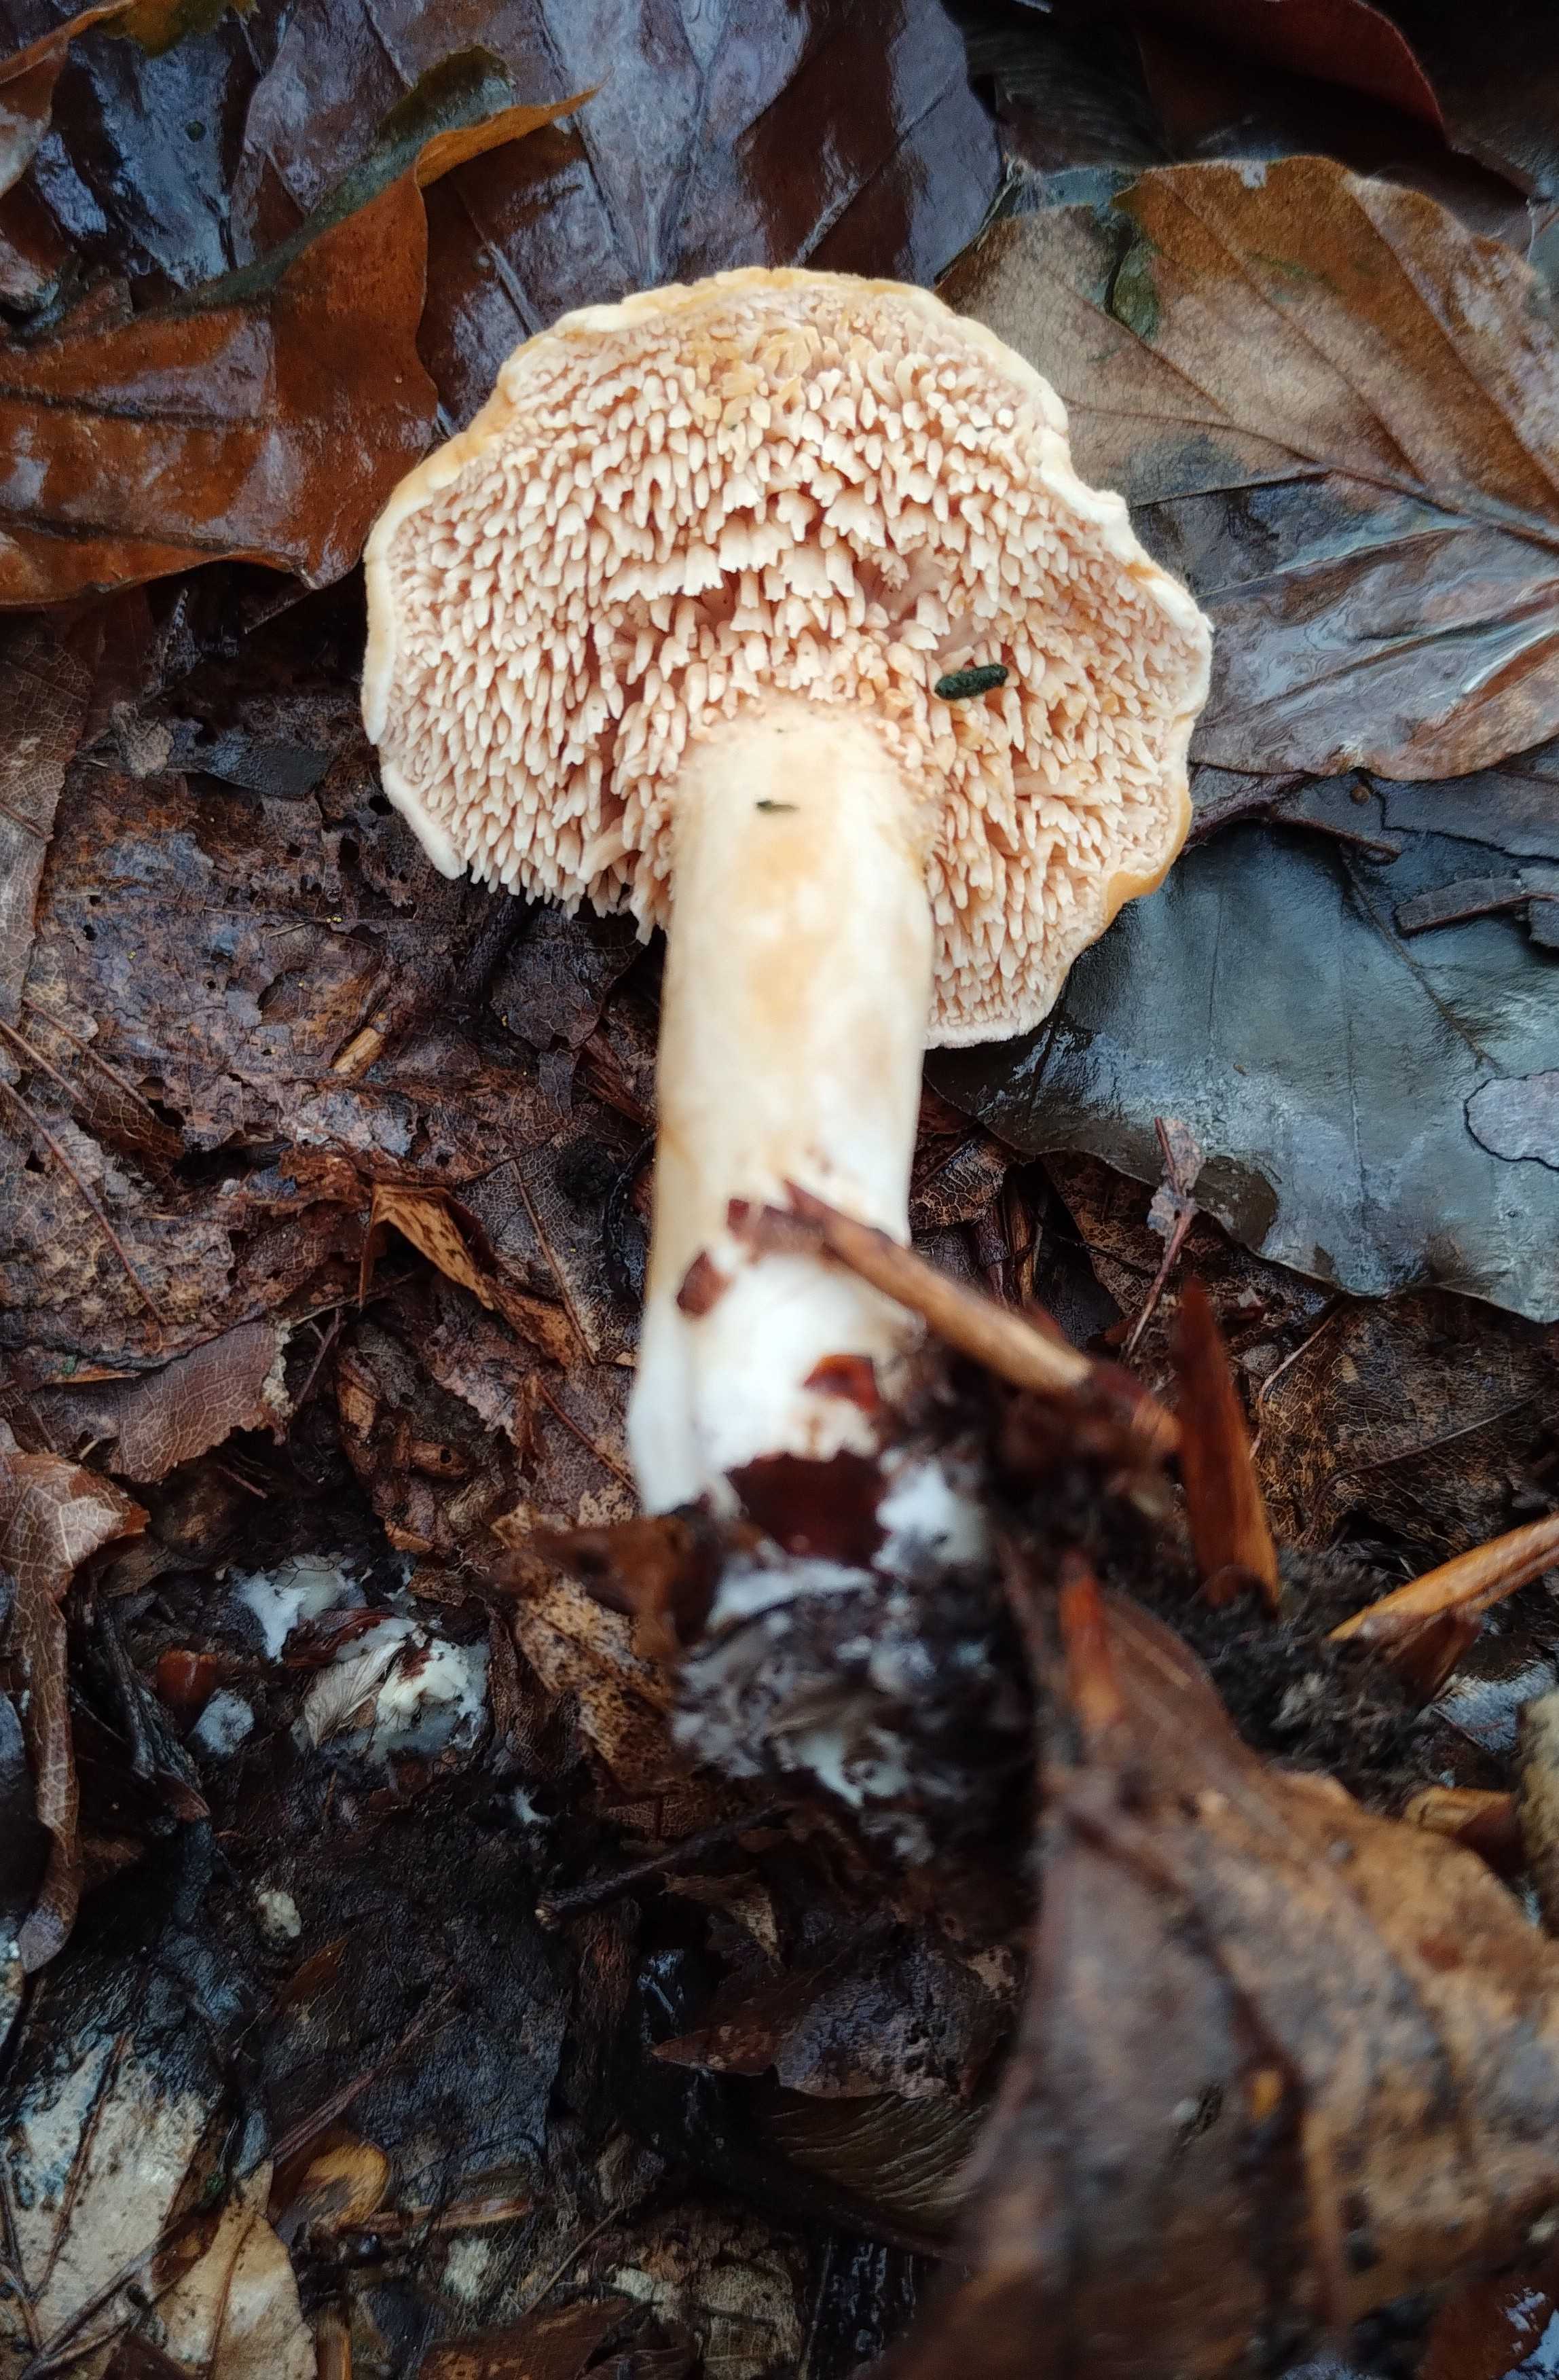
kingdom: Fungi
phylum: Basidiomycota
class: Agaricomycetes
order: Cantharellales
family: Hydnaceae
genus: Hydnum
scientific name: Hydnum
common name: pigsvamp
